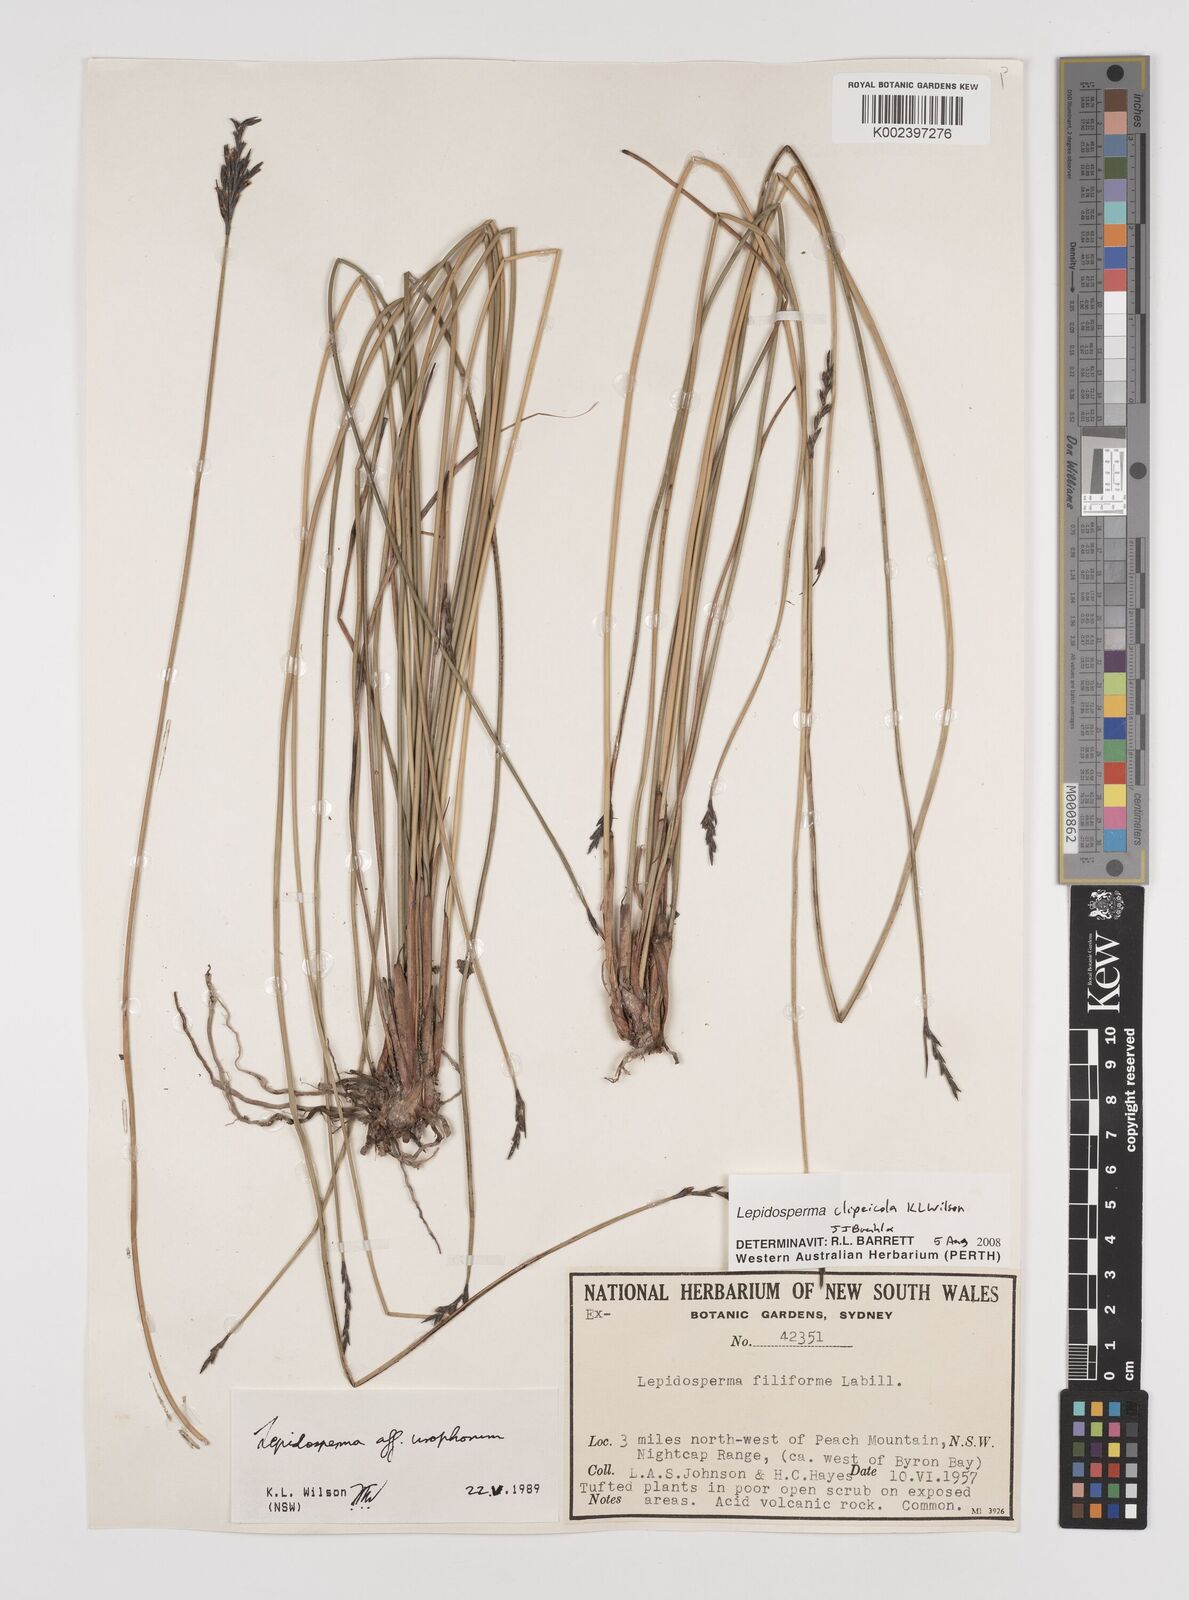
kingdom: Plantae
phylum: Tracheophyta
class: Liliopsida
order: Poales
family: Cyperaceae
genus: Lepidosperma
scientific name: Lepidosperma clipeicola
